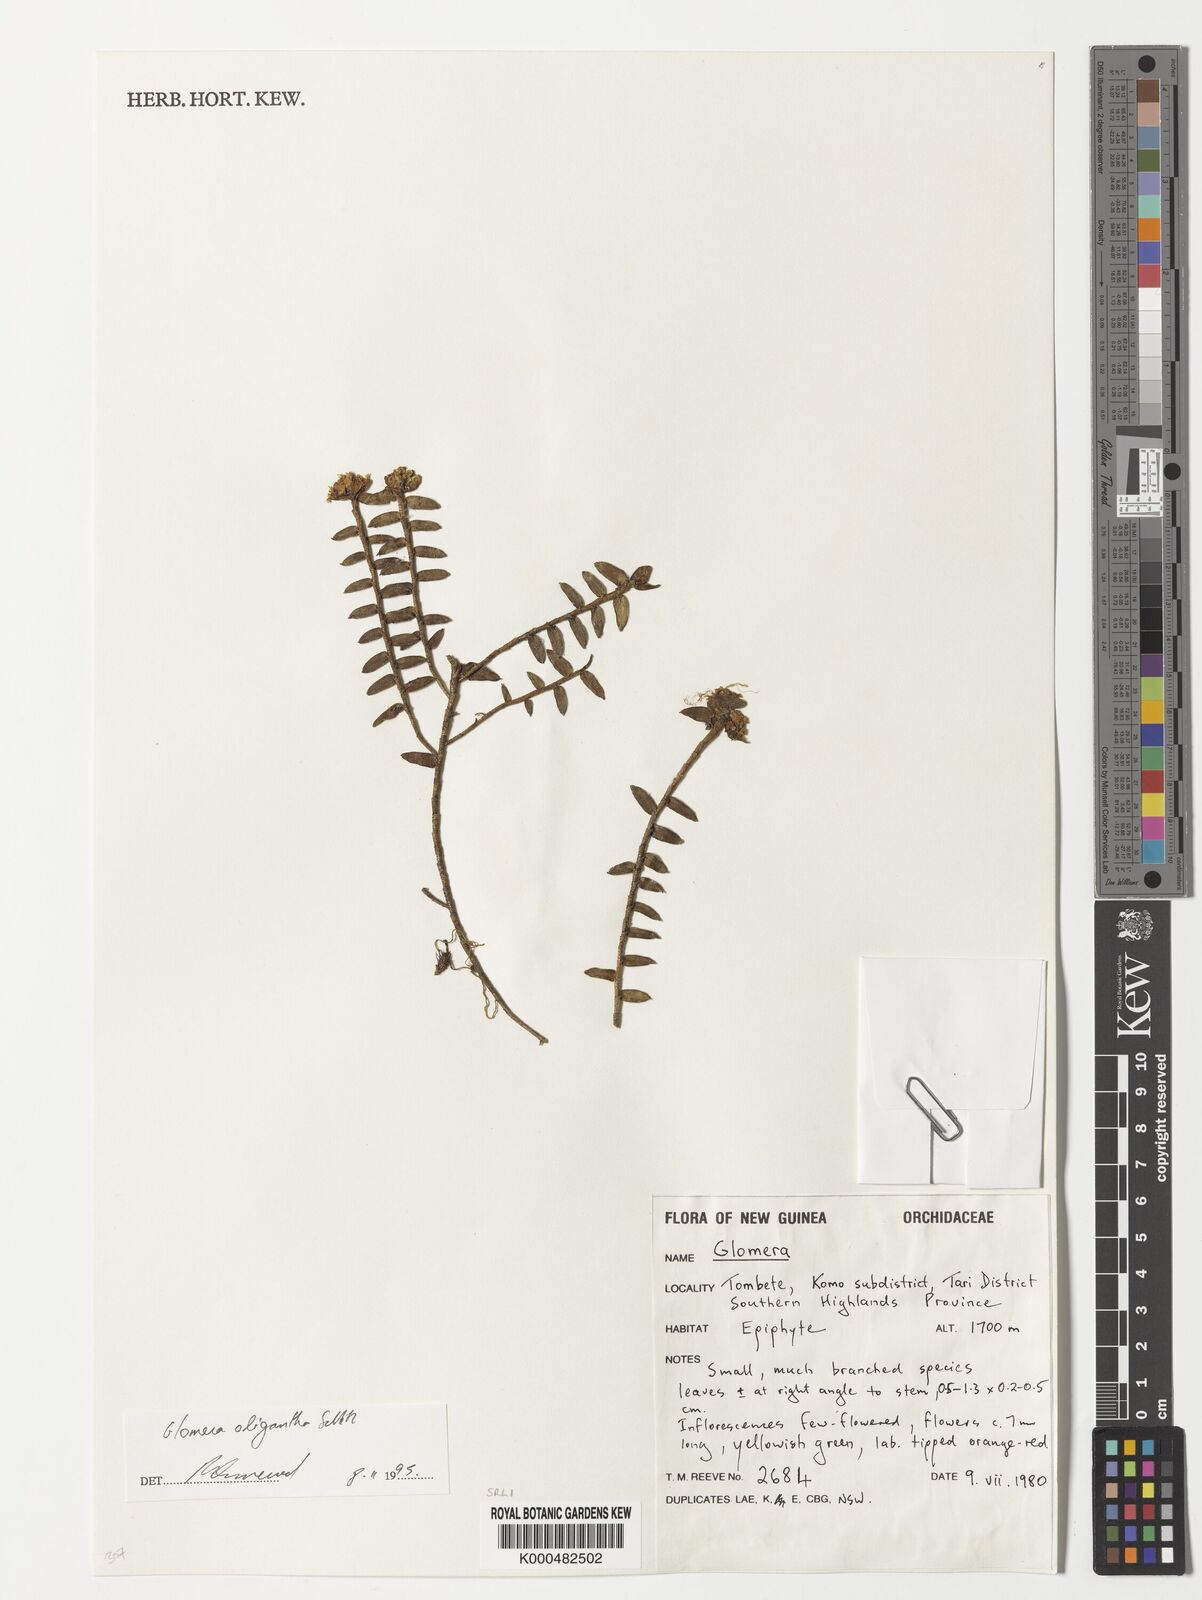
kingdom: Plantae
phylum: Tracheophyta
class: Liliopsida
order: Asparagales
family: Orchidaceae
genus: Glomera
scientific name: Glomera oligantha
